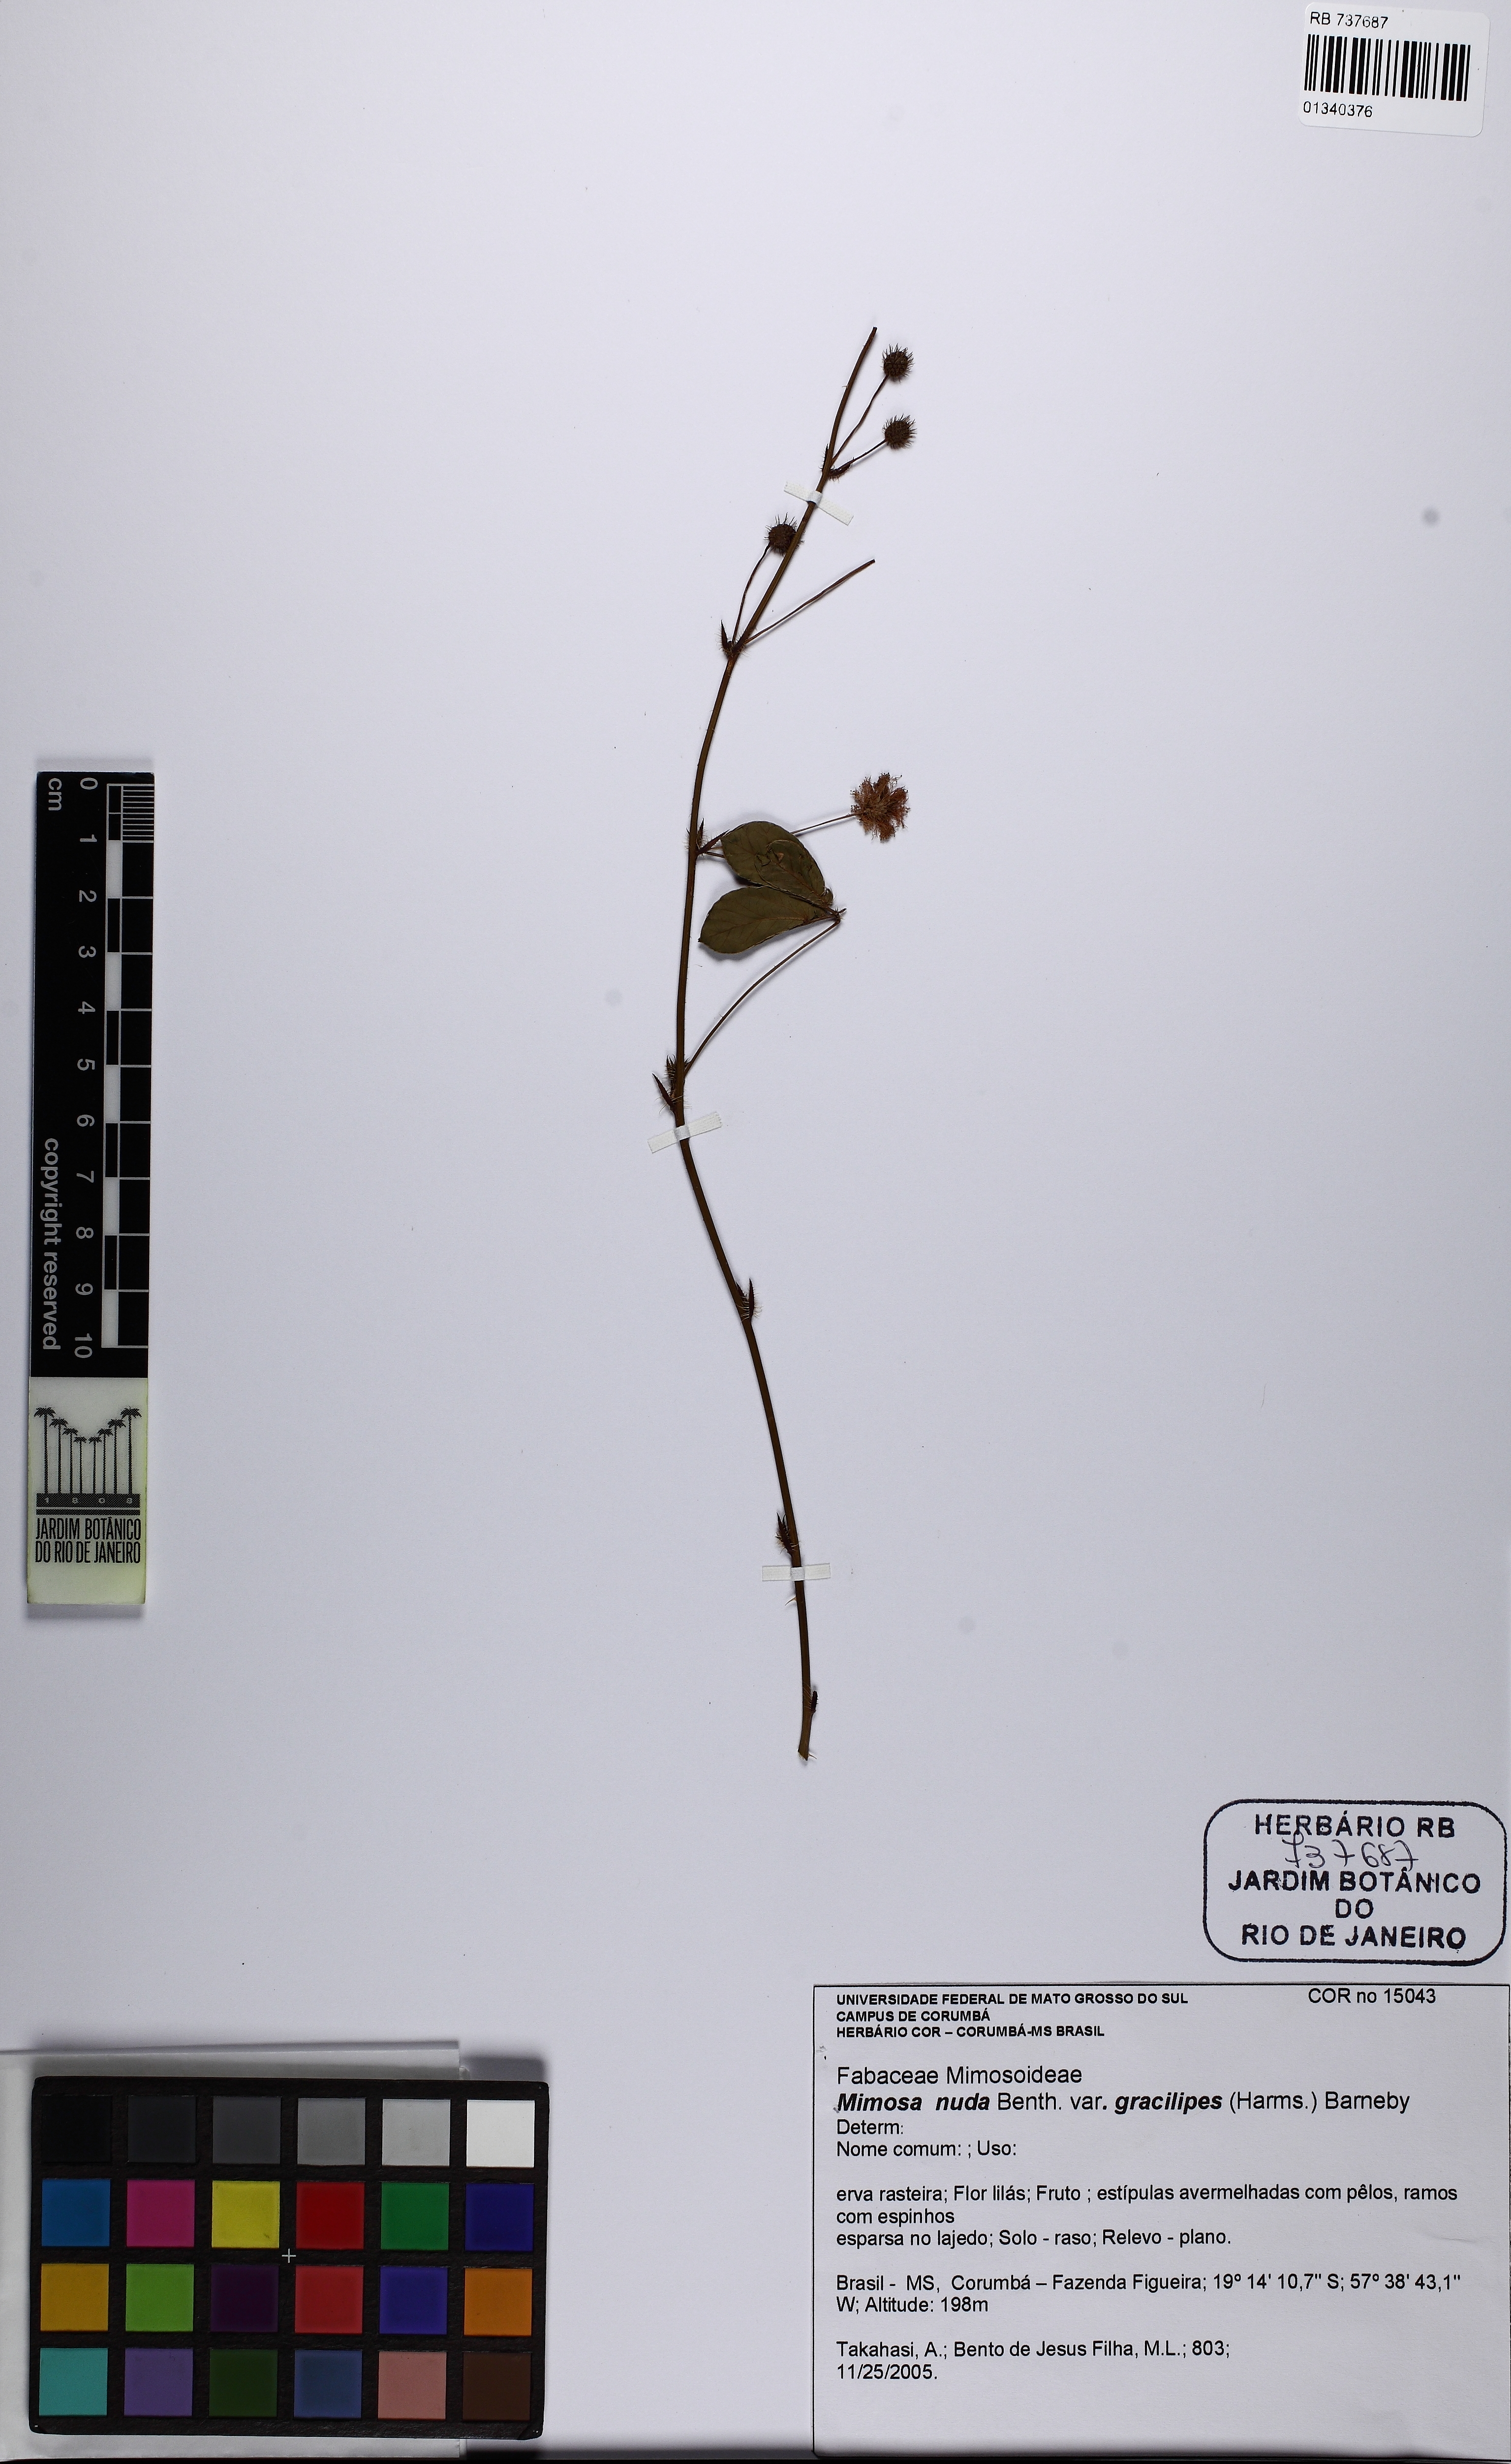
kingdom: Plantae
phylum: Tracheophyta
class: Magnoliopsida
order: Fabales
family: Fabaceae
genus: Mimosa
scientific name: Mimosa debilis
